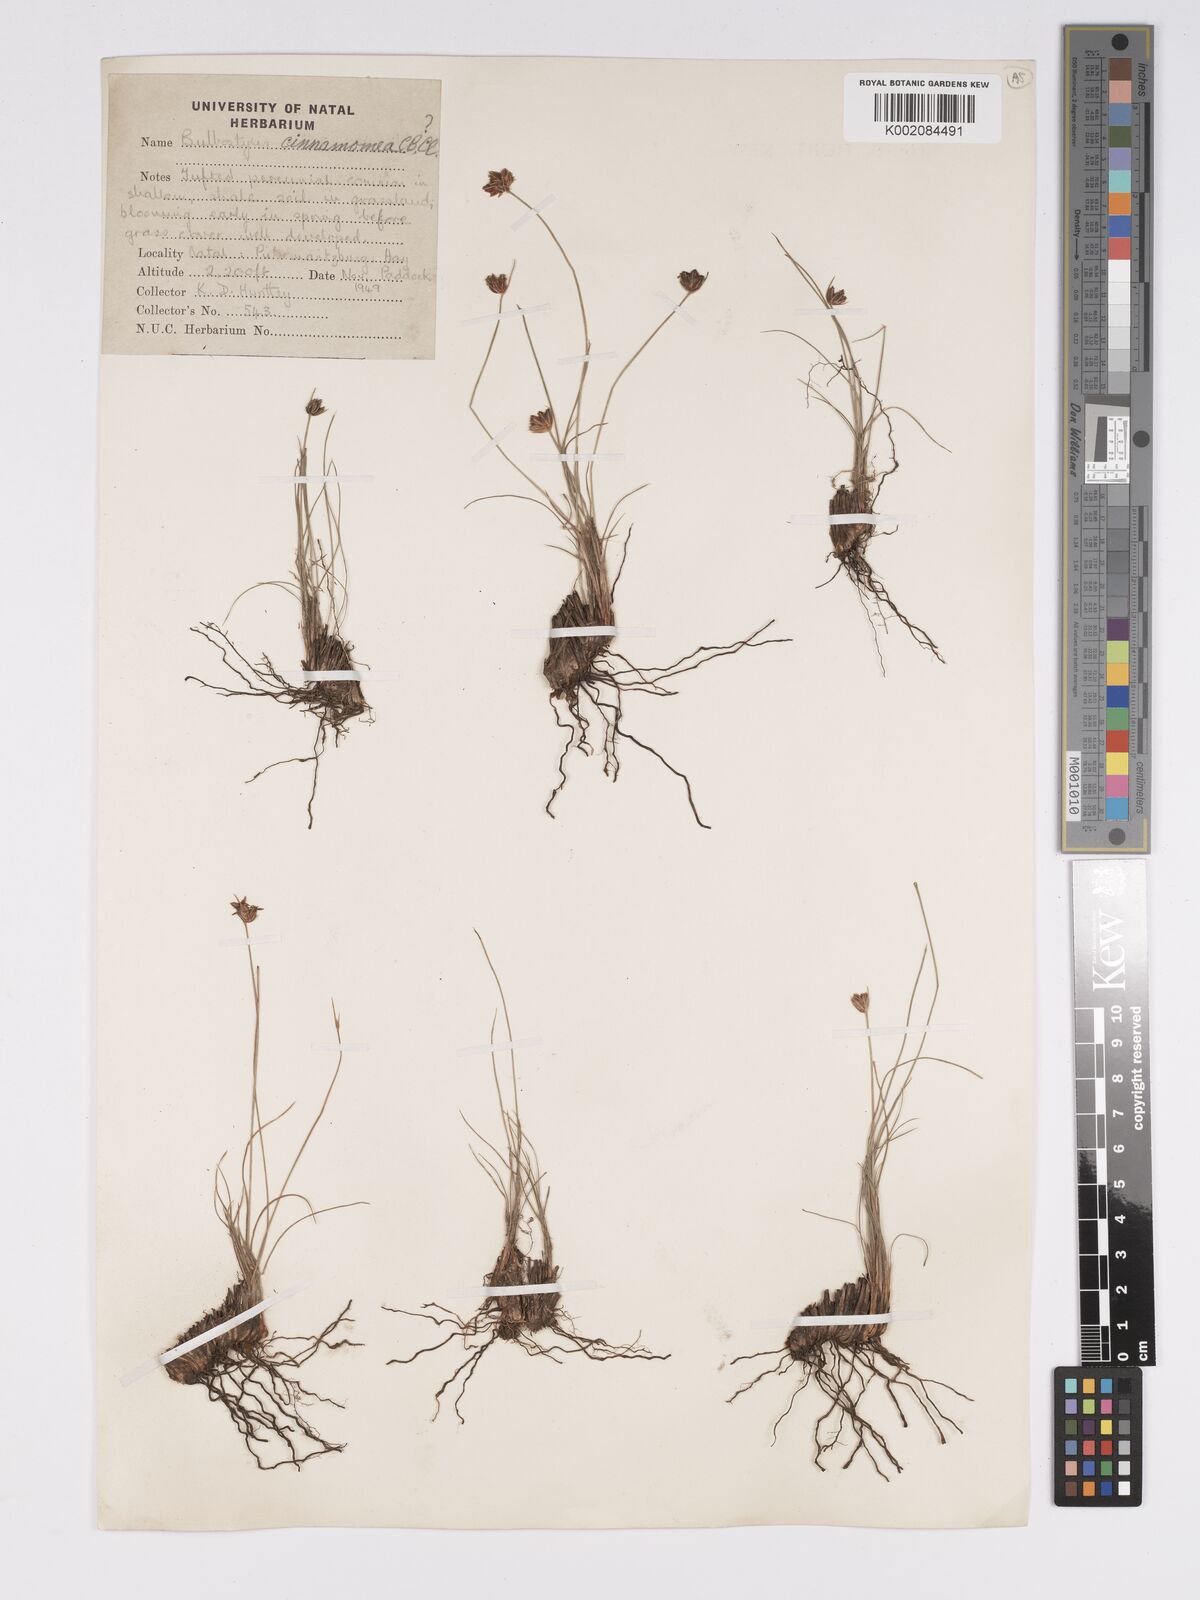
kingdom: Plantae
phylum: Tracheophyta
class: Liliopsida
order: Poales
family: Cyperaceae
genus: Bulbostylis
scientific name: Bulbostylis boeckeleriana
